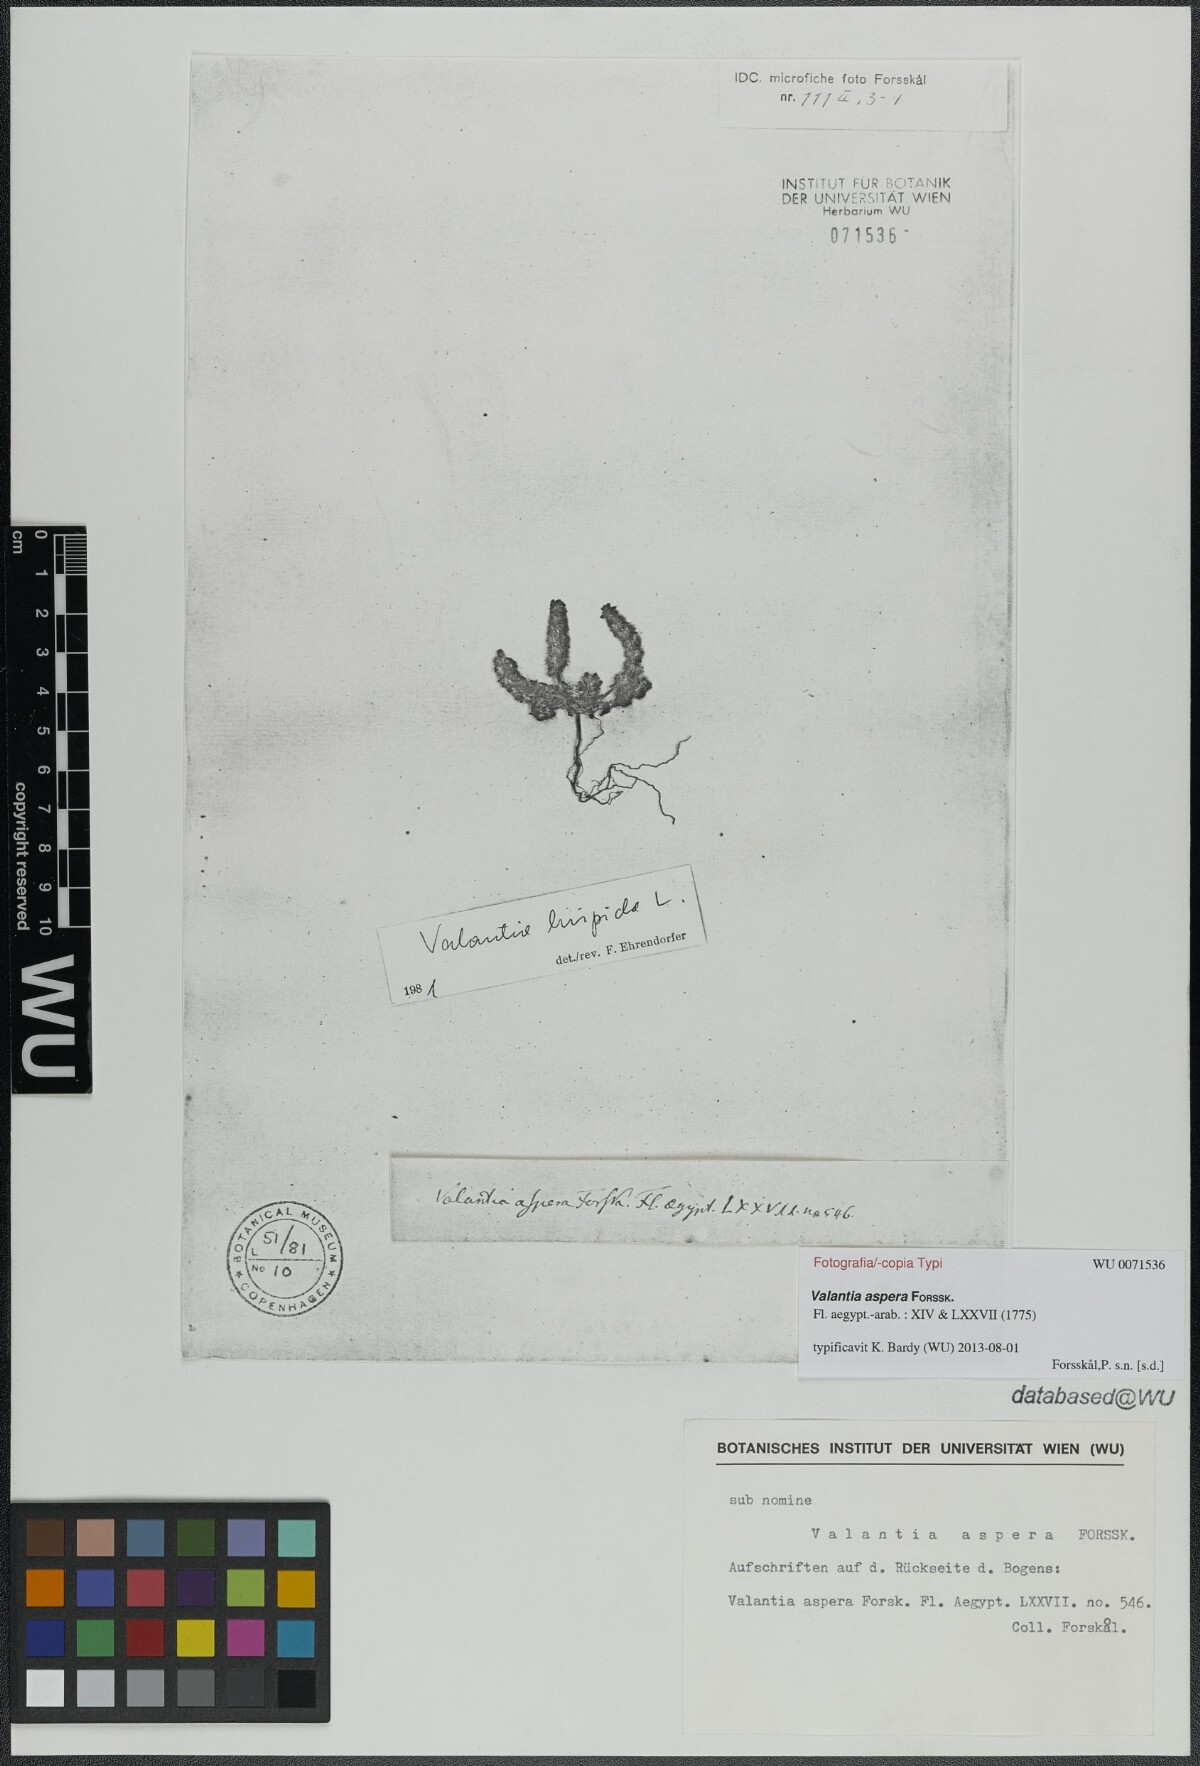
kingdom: Plantae
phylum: Tracheophyta
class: Magnoliopsida
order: Gentianales
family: Rubiaceae
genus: Cruciata
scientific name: Cruciata pedemontana
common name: Piedmont bedstraw
